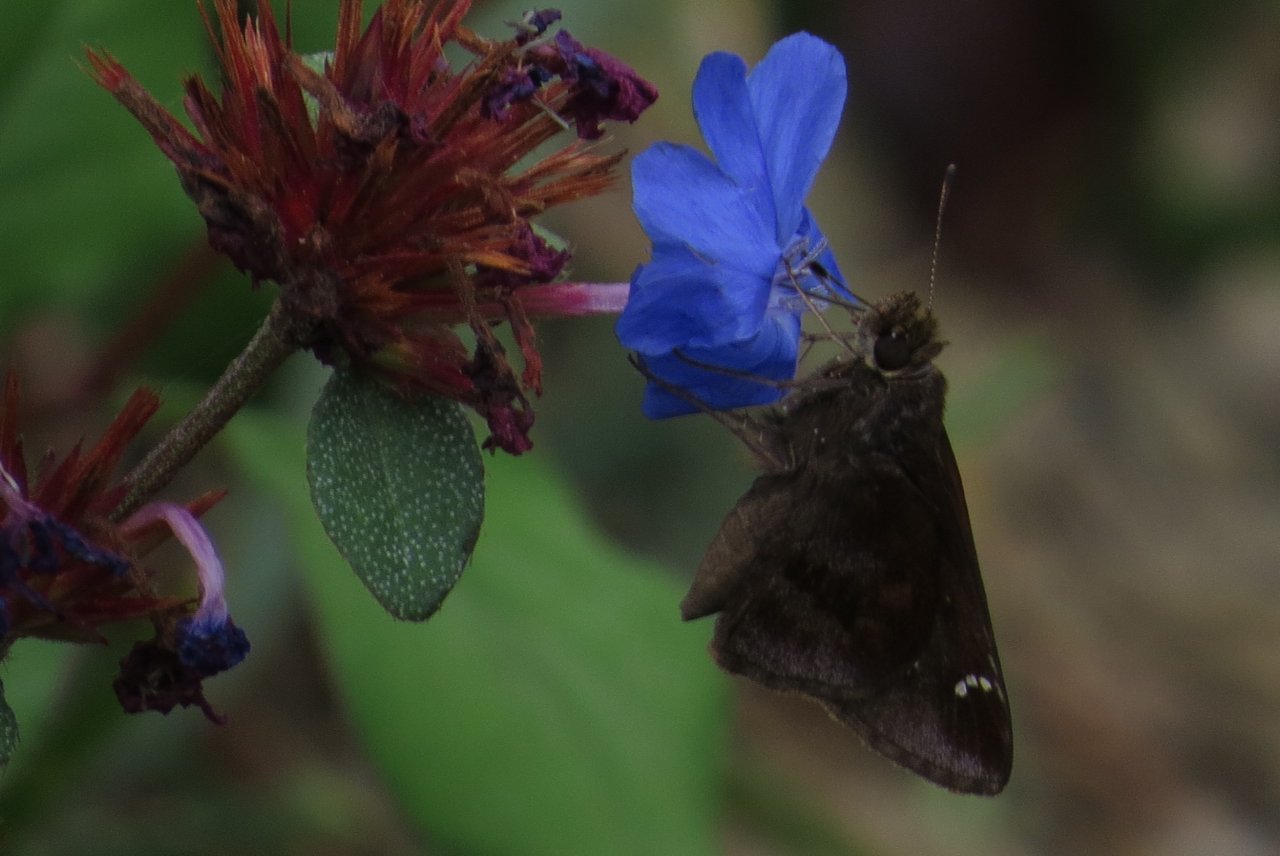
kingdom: Animalia
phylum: Arthropoda
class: Insecta
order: Lepidoptera
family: Hesperiidae
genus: Lerema
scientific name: Lerema accius
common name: Clouded Skipper
